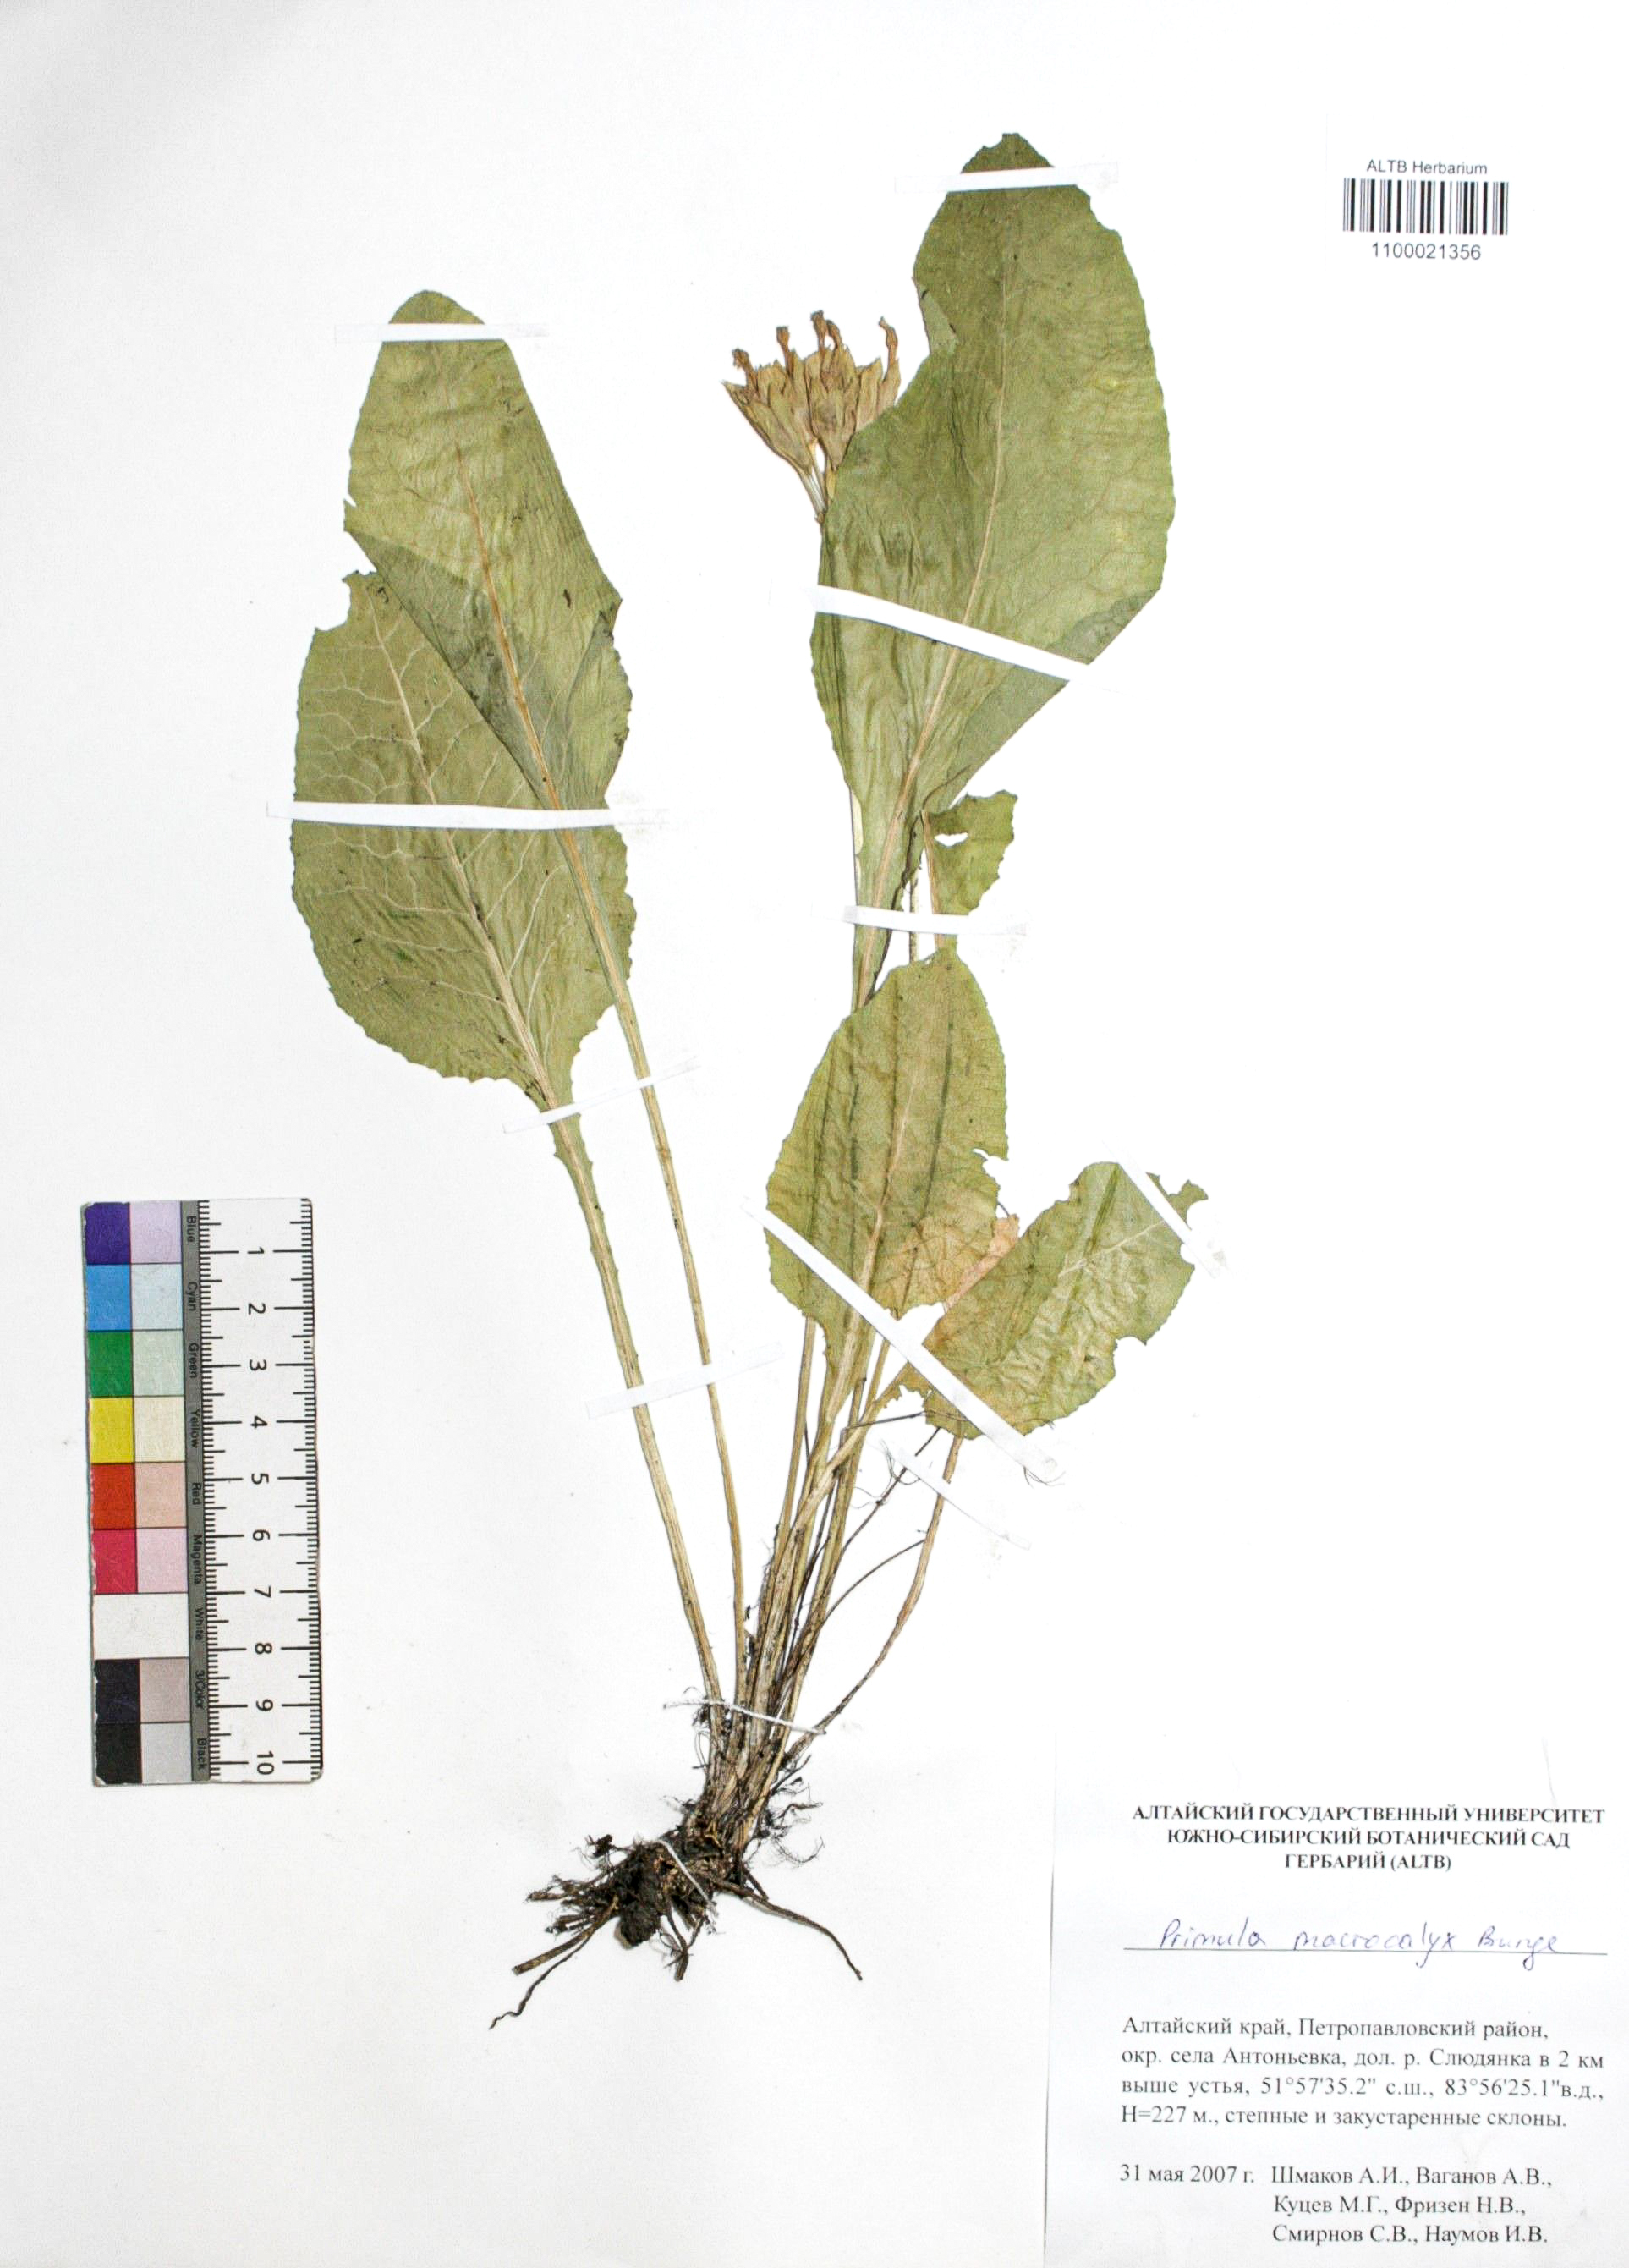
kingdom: Plantae
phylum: Tracheophyta
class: Magnoliopsida
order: Ericales
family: Primulaceae
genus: Primula
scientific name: Primula veris
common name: Cowslip
